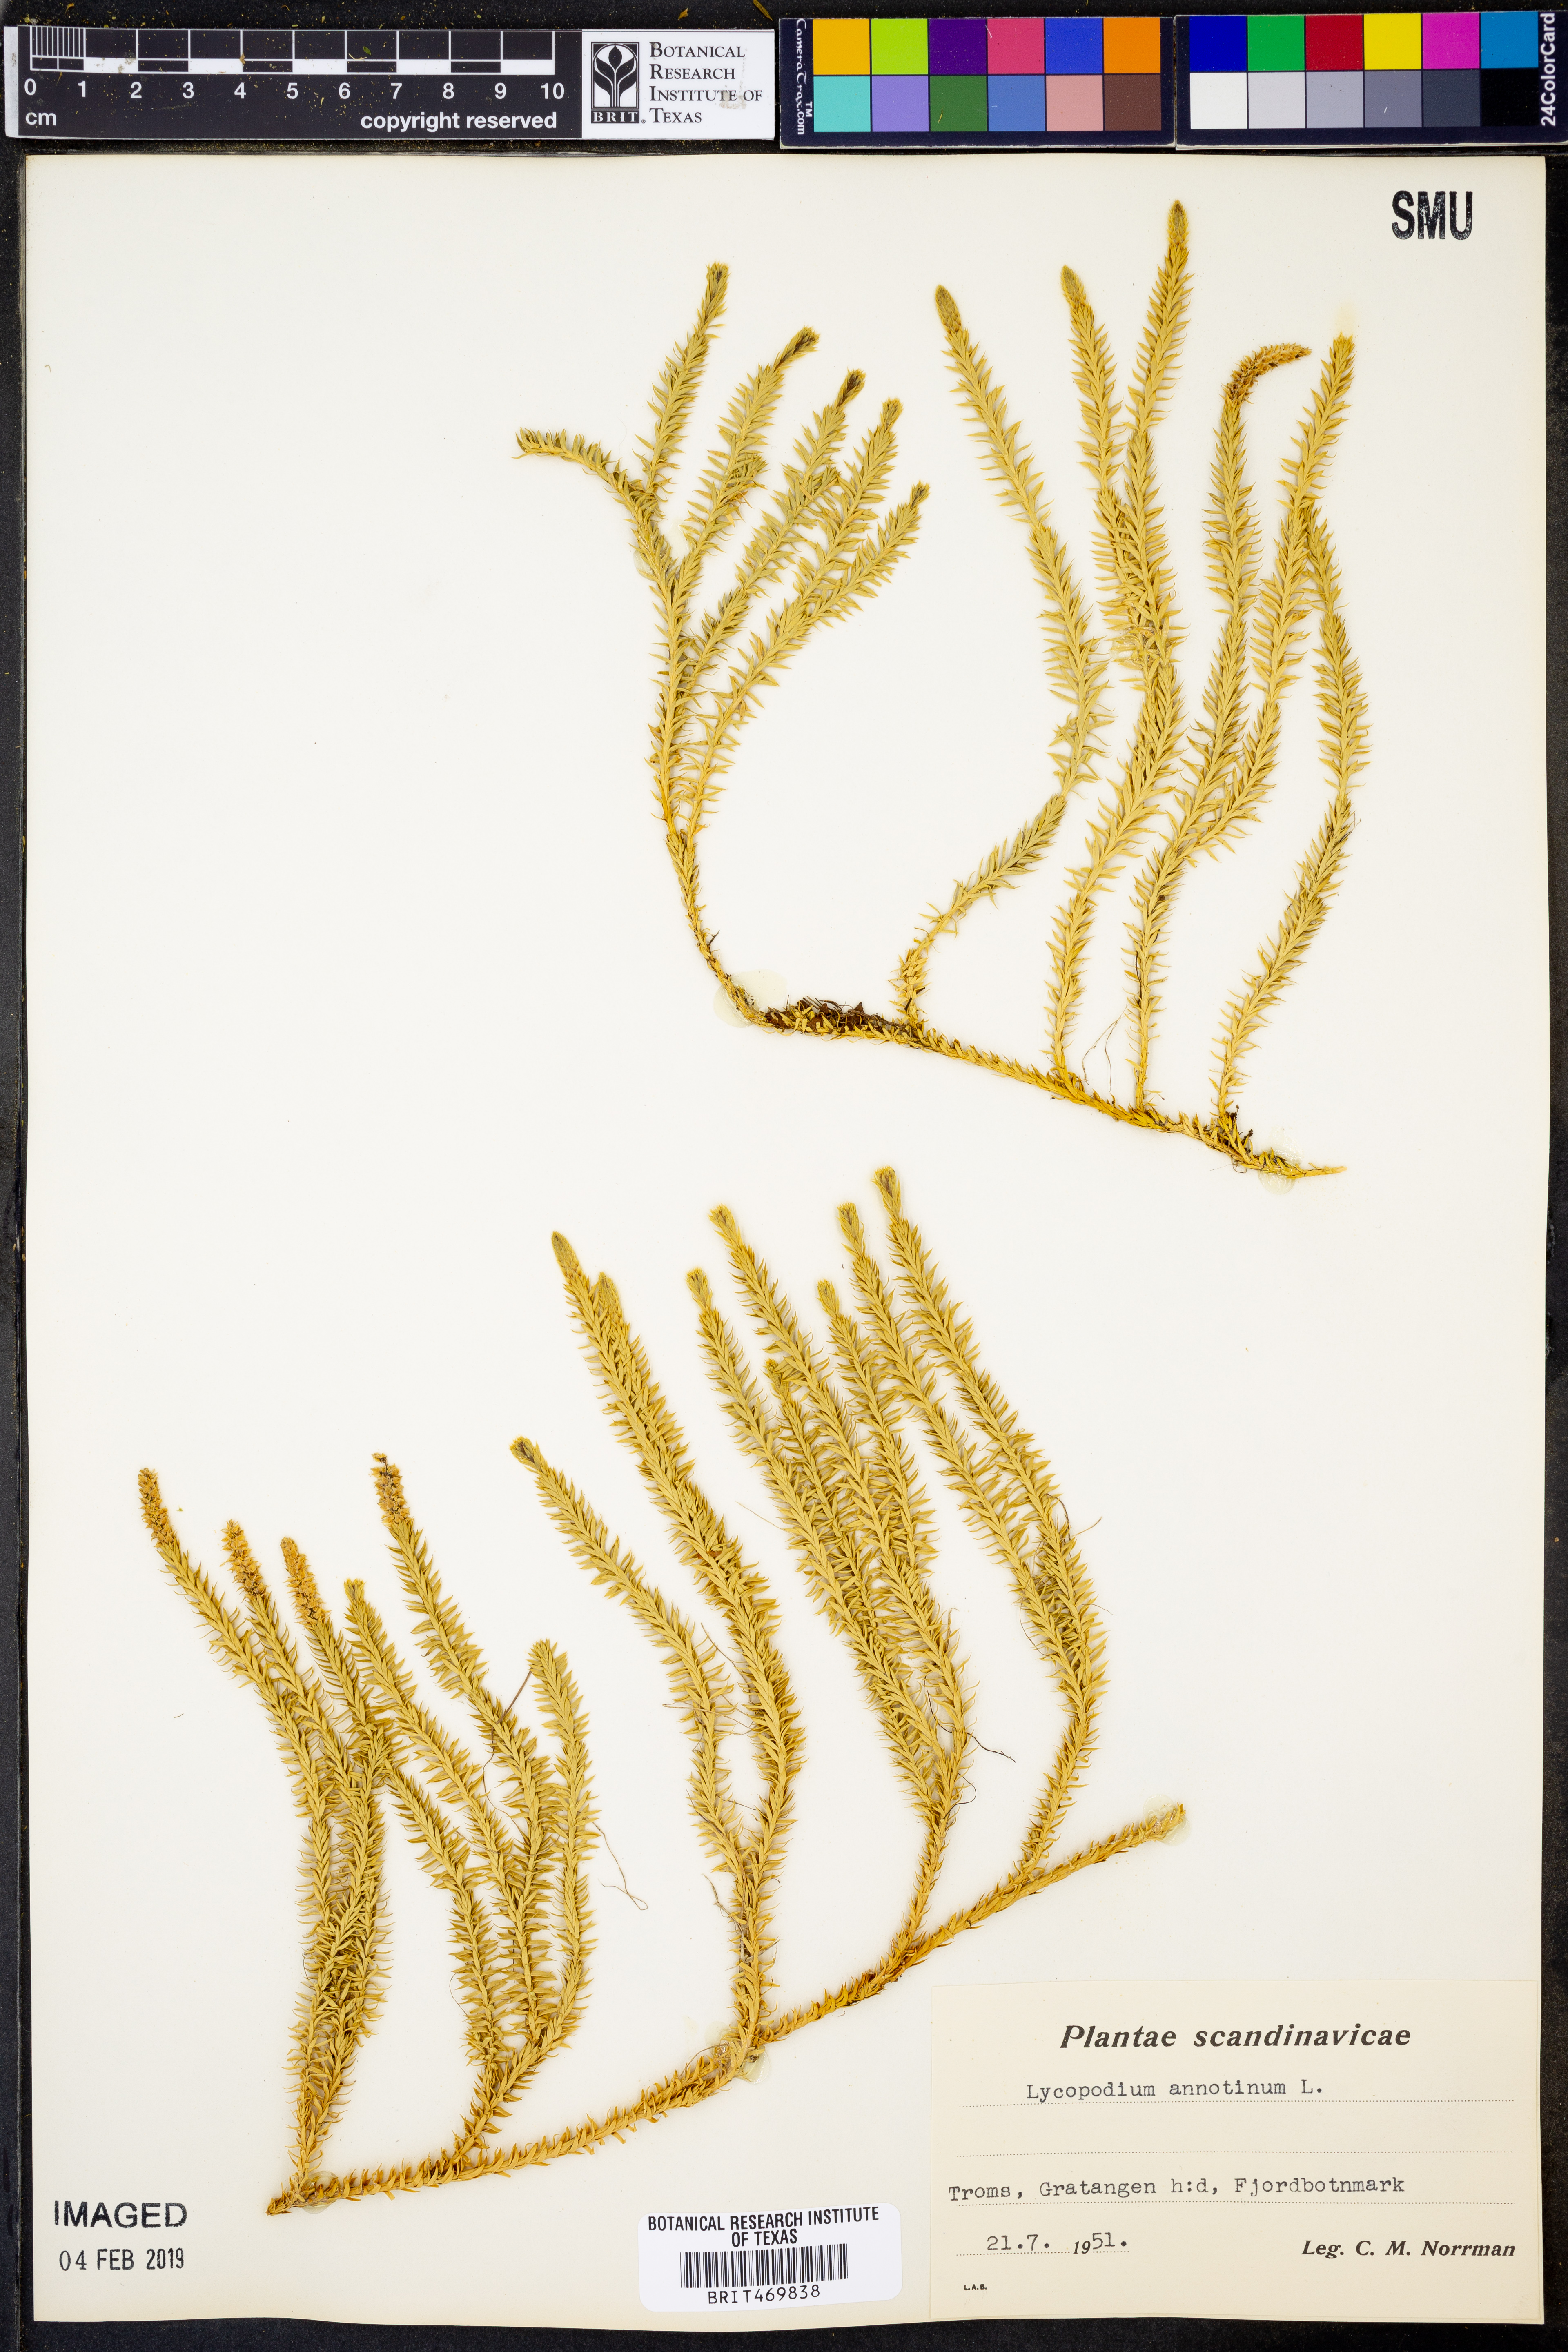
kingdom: Plantae
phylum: Tracheophyta
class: Lycopodiopsida
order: Lycopodiales
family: Lycopodiaceae
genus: Spinulum
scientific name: Spinulum annotinum
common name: Interrupted club-moss
